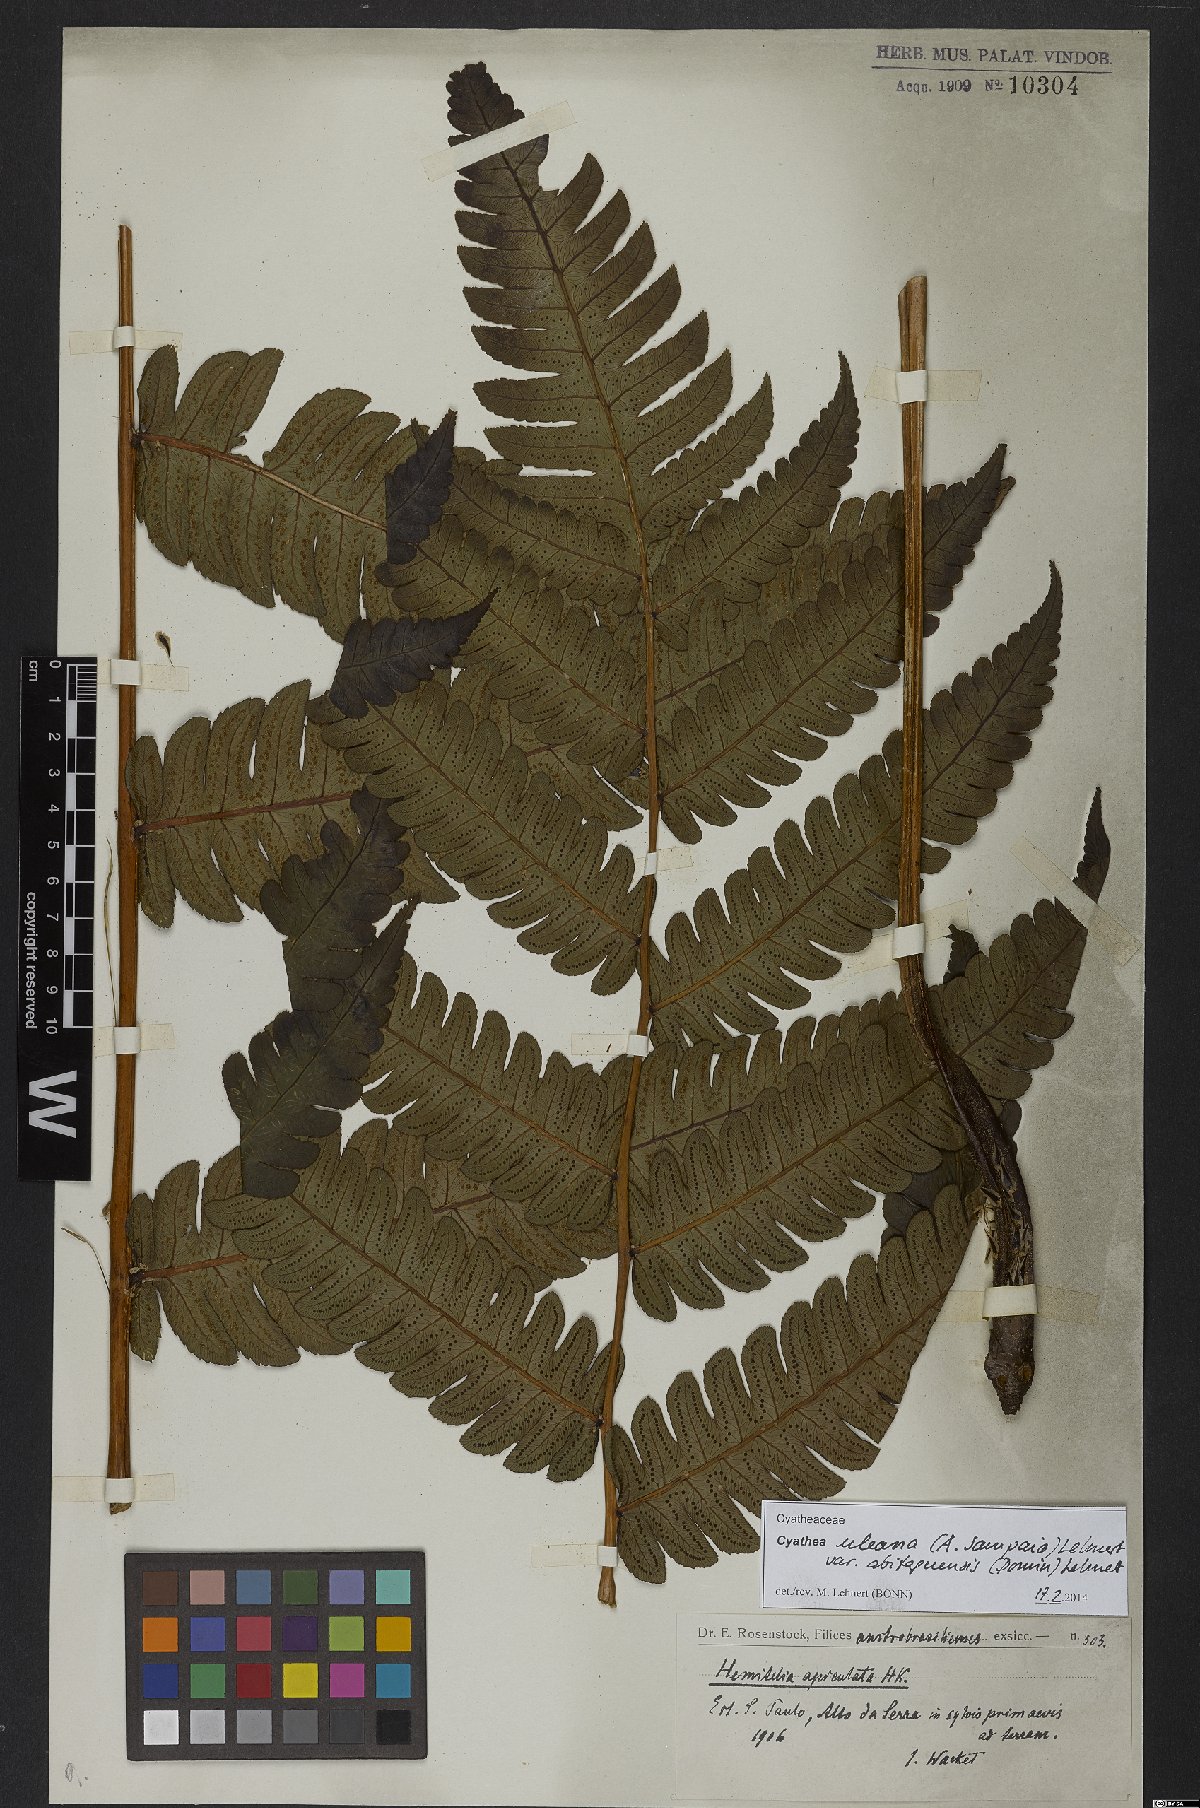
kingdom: Plantae
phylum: Tracheophyta
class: Polypodiopsida
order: Cyatheales
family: Cyatheaceae
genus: Cyathea
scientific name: Cyathea uleana
